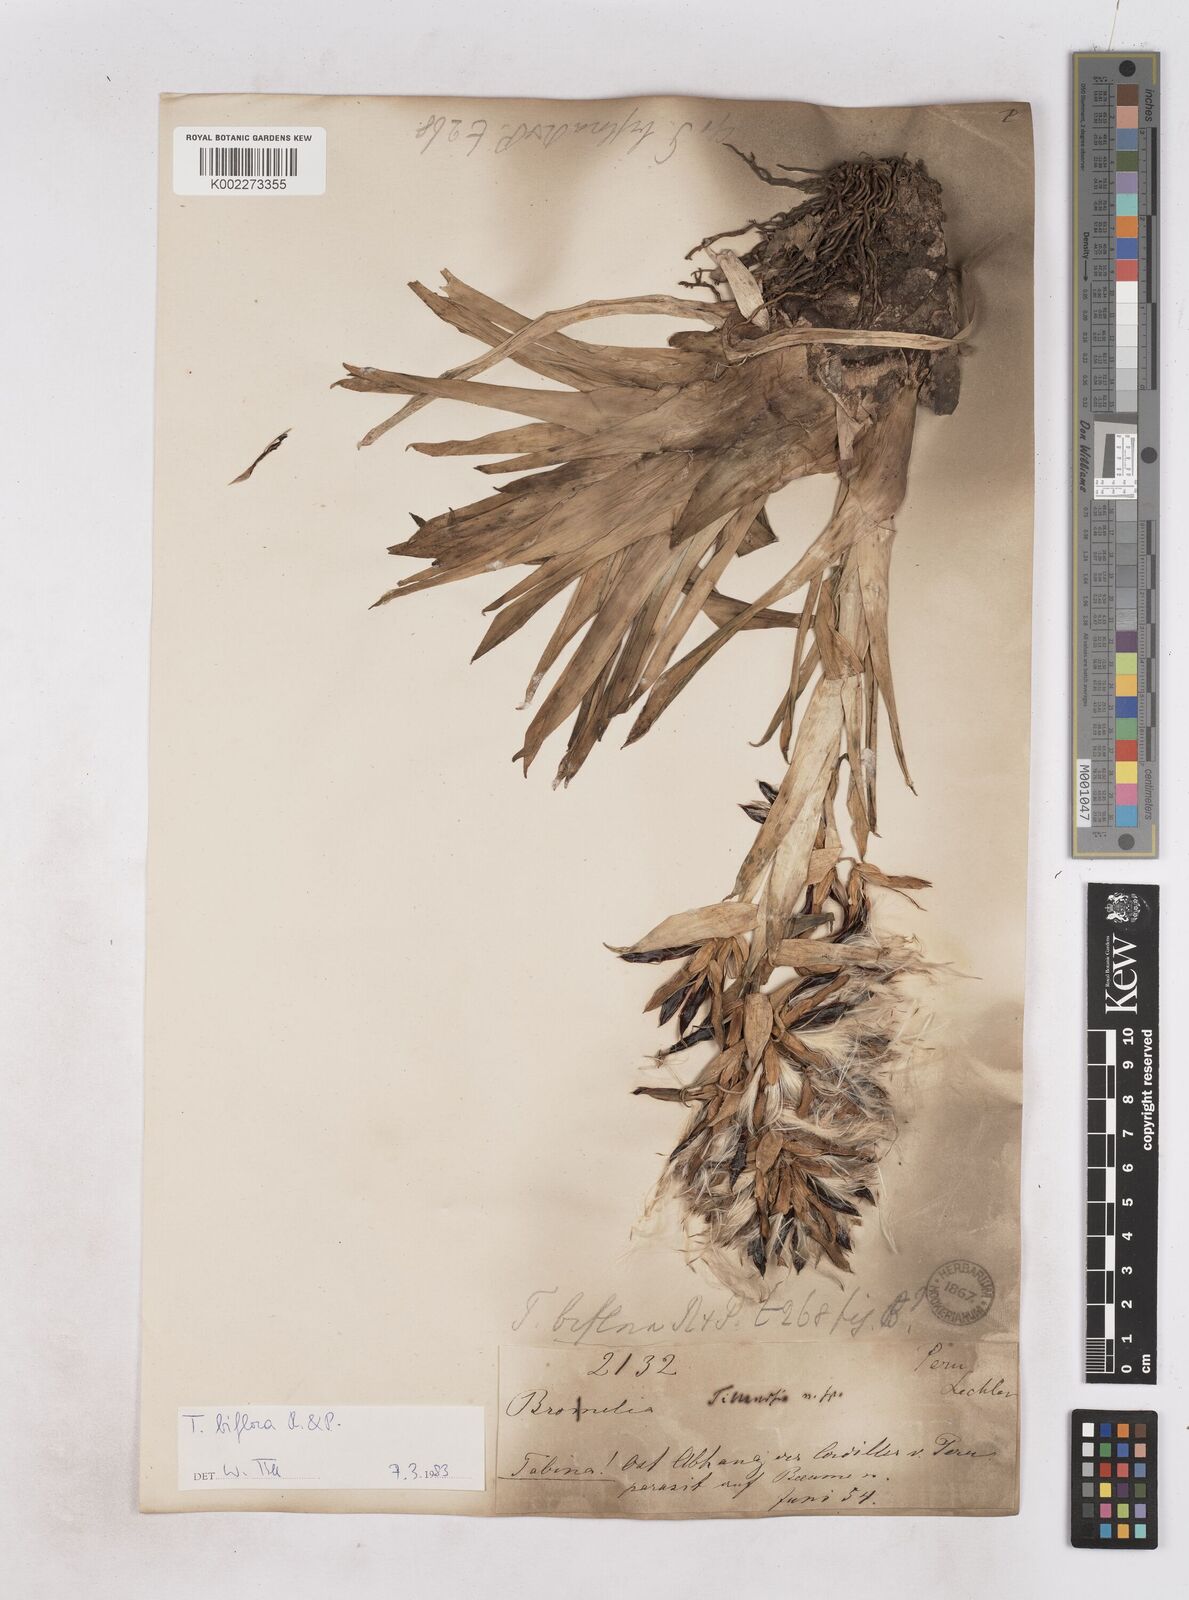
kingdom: Plantae
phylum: Tracheophyta
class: Liliopsida
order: Poales
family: Bromeliaceae
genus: Tillandsia
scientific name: Tillandsia biflora
